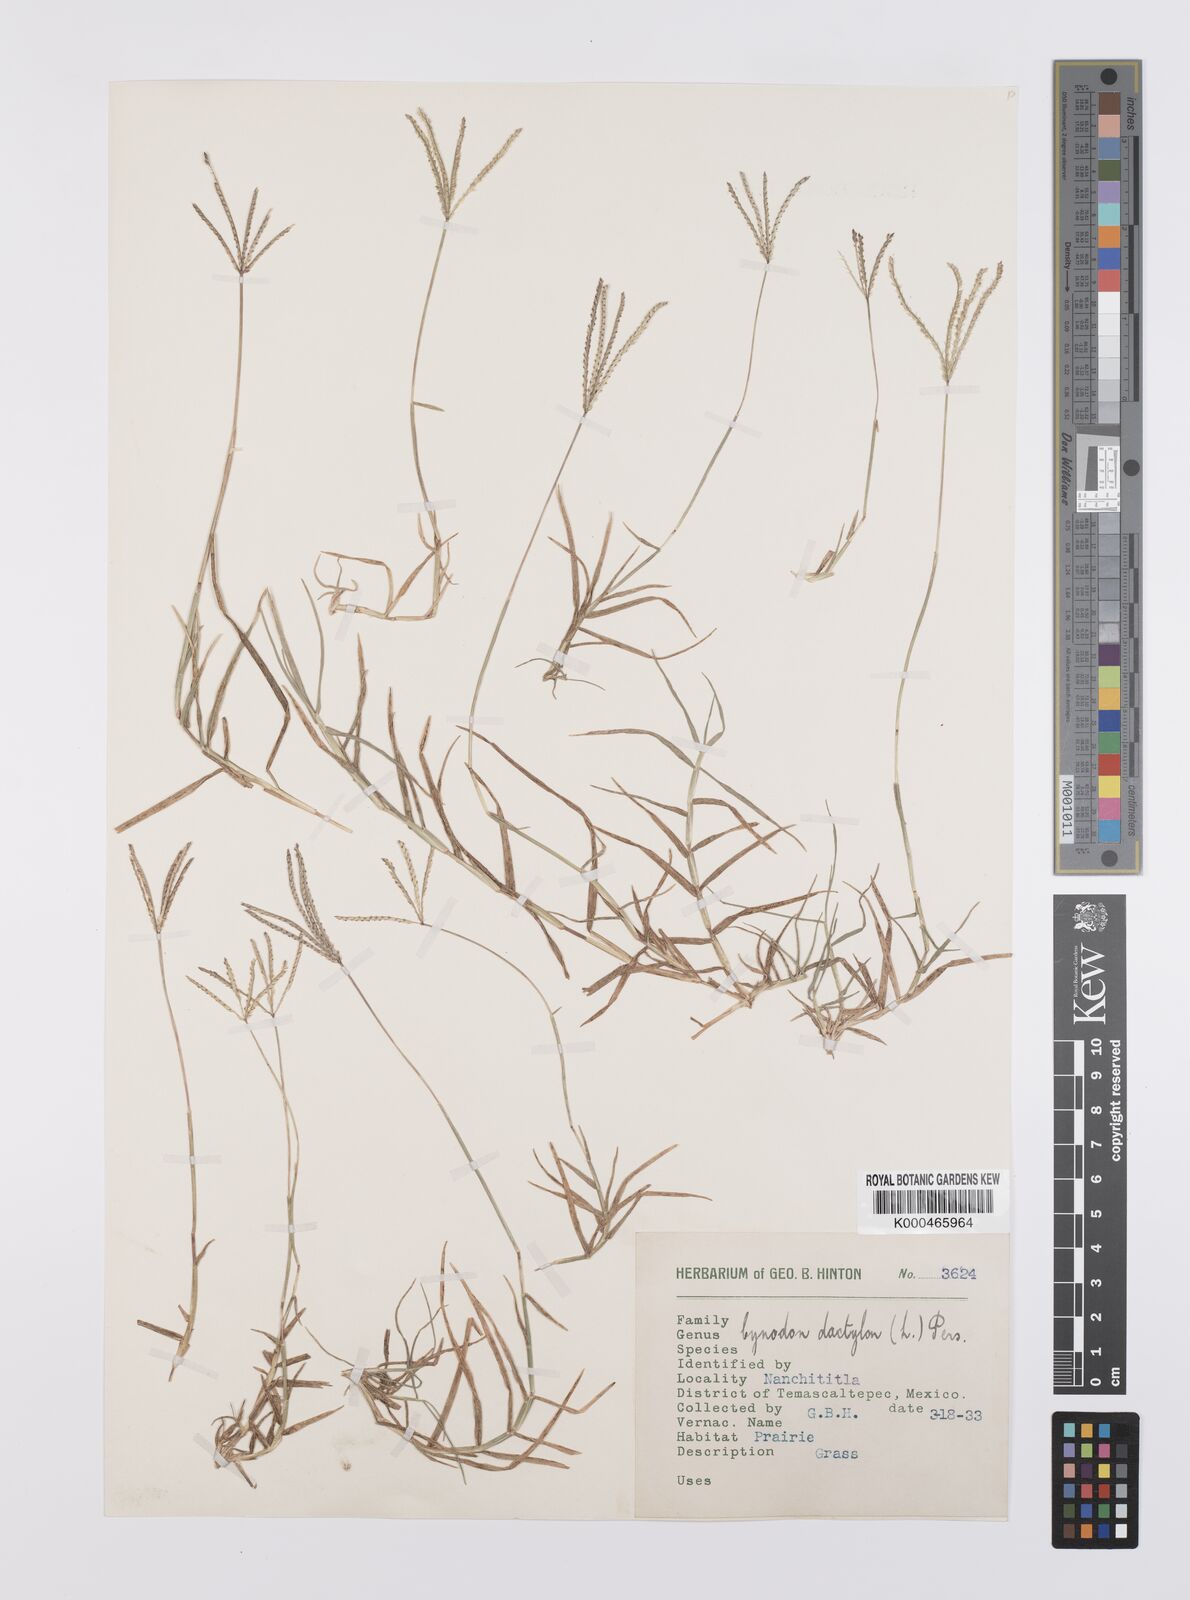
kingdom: Plantae
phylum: Tracheophyta
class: Liliopsida
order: Poales
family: Poaceae
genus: Cynodon
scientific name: Cynodon dactylon
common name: Bermuda grass
